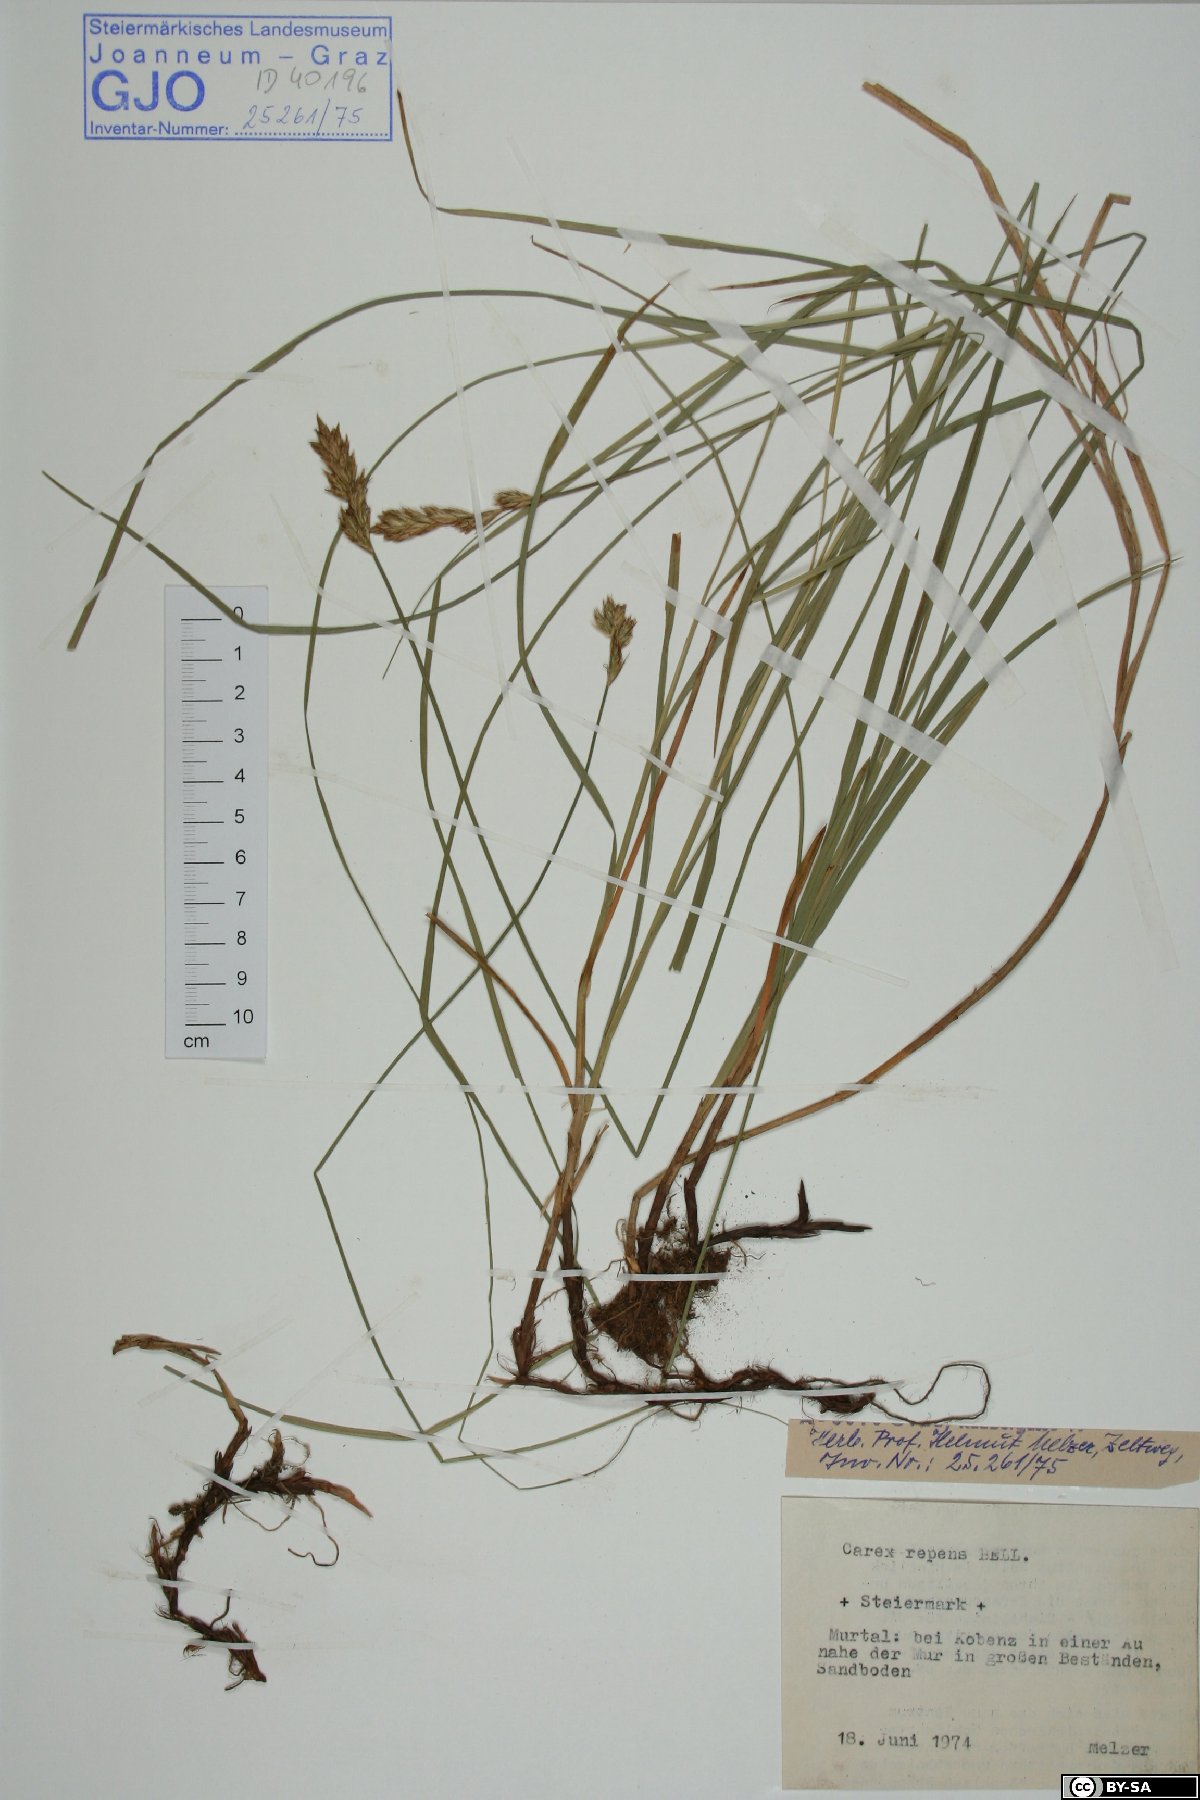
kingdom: Plantae
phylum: Tracheophyta
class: Liliopsida
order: Poales
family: Cyperaceae
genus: Carex
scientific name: Carex repens
